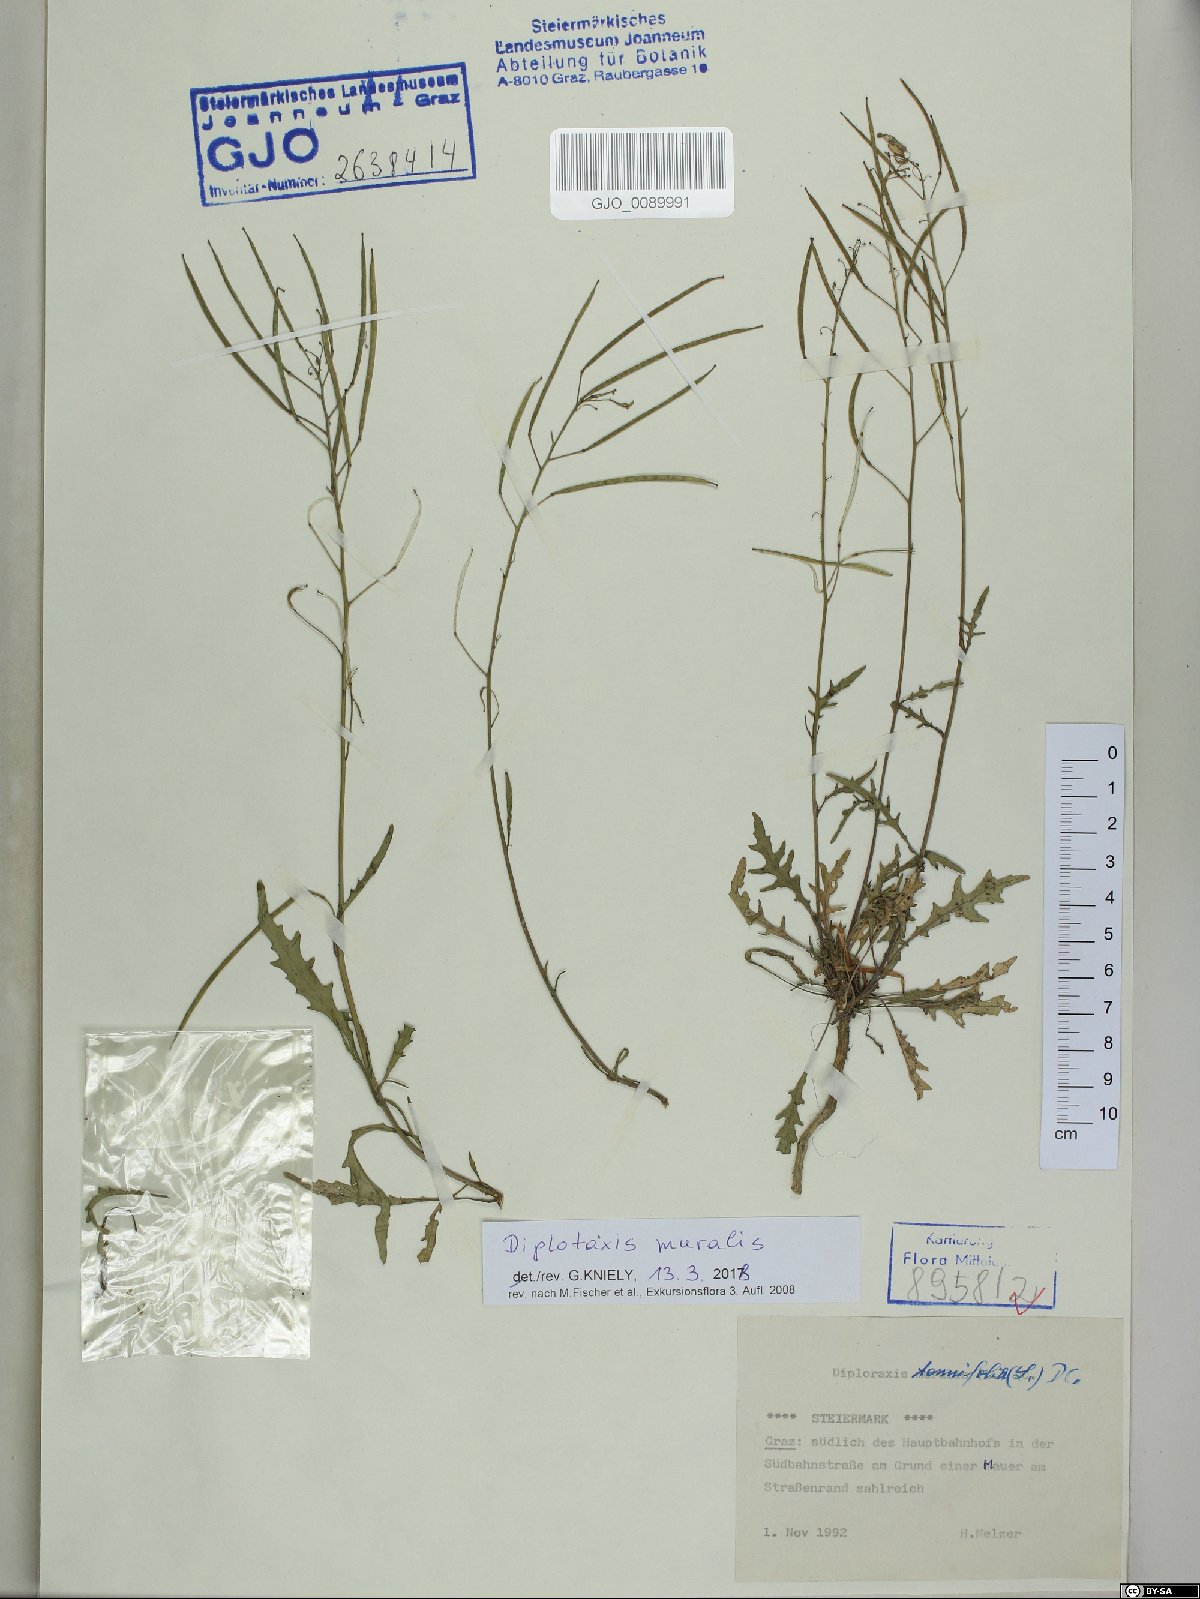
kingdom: Plantae
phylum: Tracheophyta
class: Magnoliopsida
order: Brassicales
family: Brassicaceae
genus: Diplotaxis
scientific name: Diplotaxis muralis
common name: Annual wall-rocket
